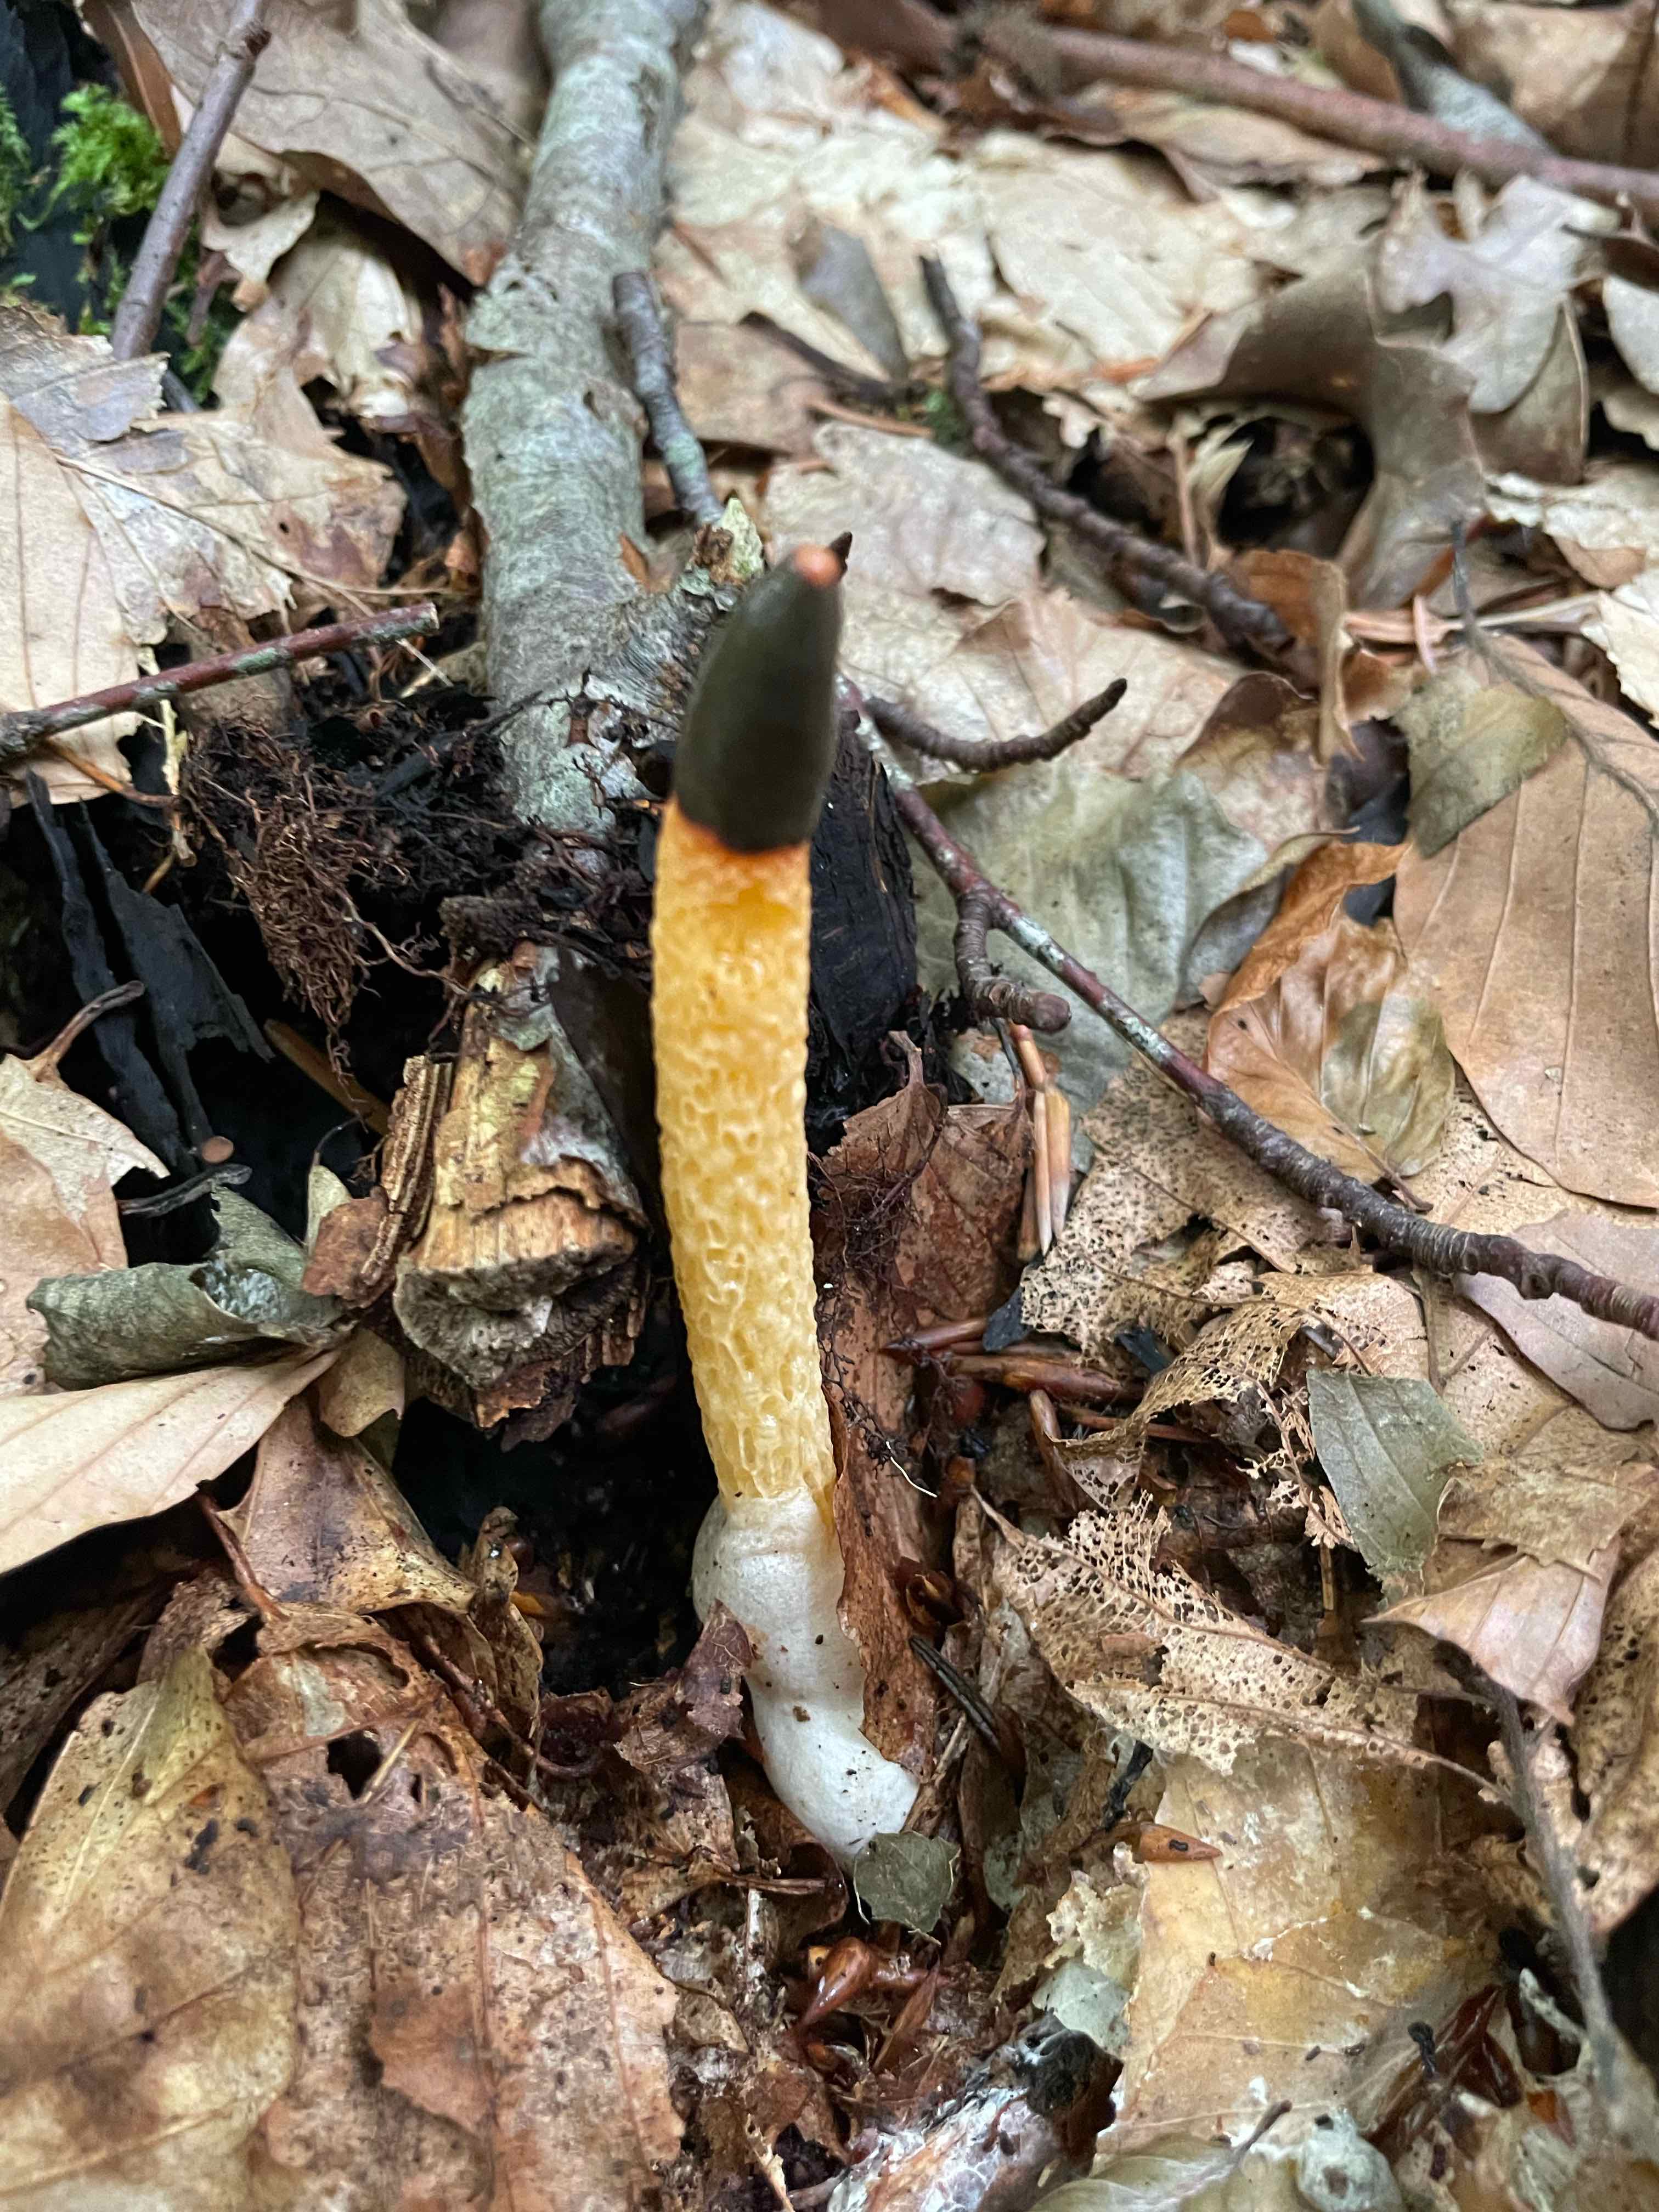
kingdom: Fungi
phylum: Basidiomycota
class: Agaricomycetes
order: Phallales
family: Phallaceae
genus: Mutinus
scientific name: Mutinus caninus
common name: hunde-stinksvamp
